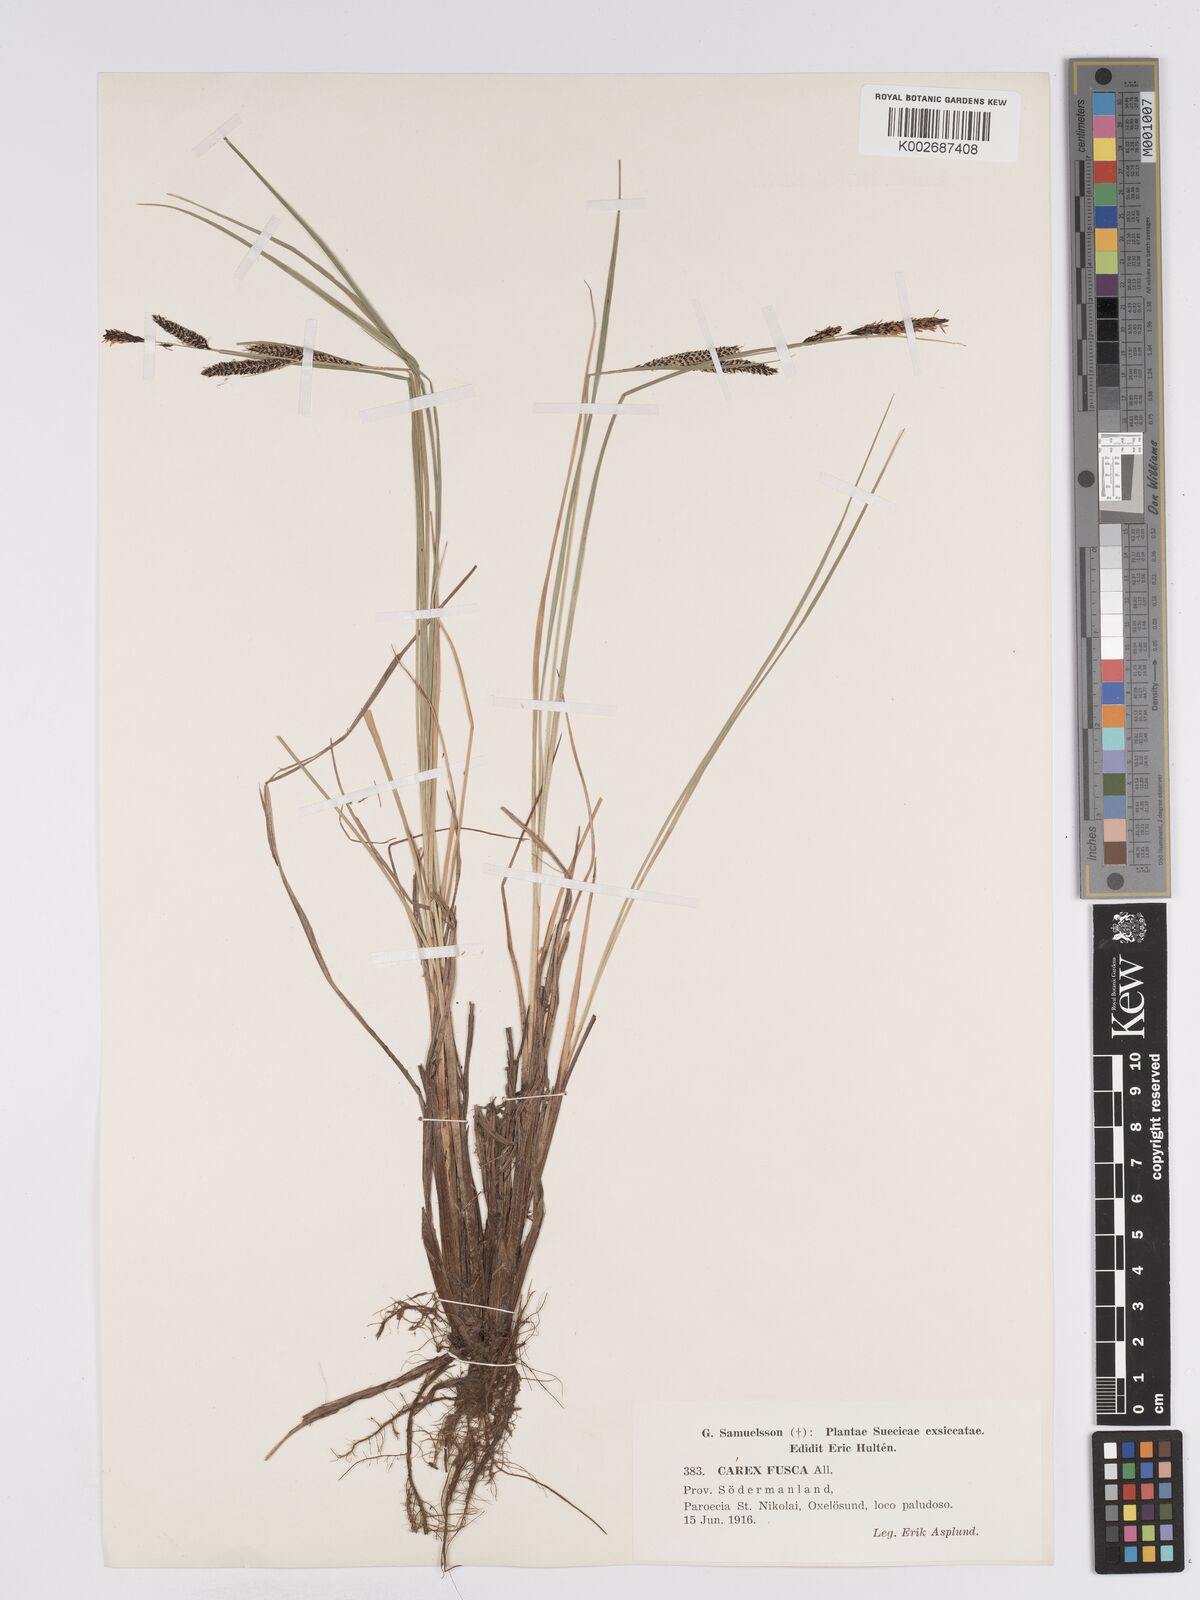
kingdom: Plantae
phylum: Tracheophyta
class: Liliopsida
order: Poales
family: Cyperaceae
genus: Carex
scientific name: Carex nigra
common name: Common sedge
